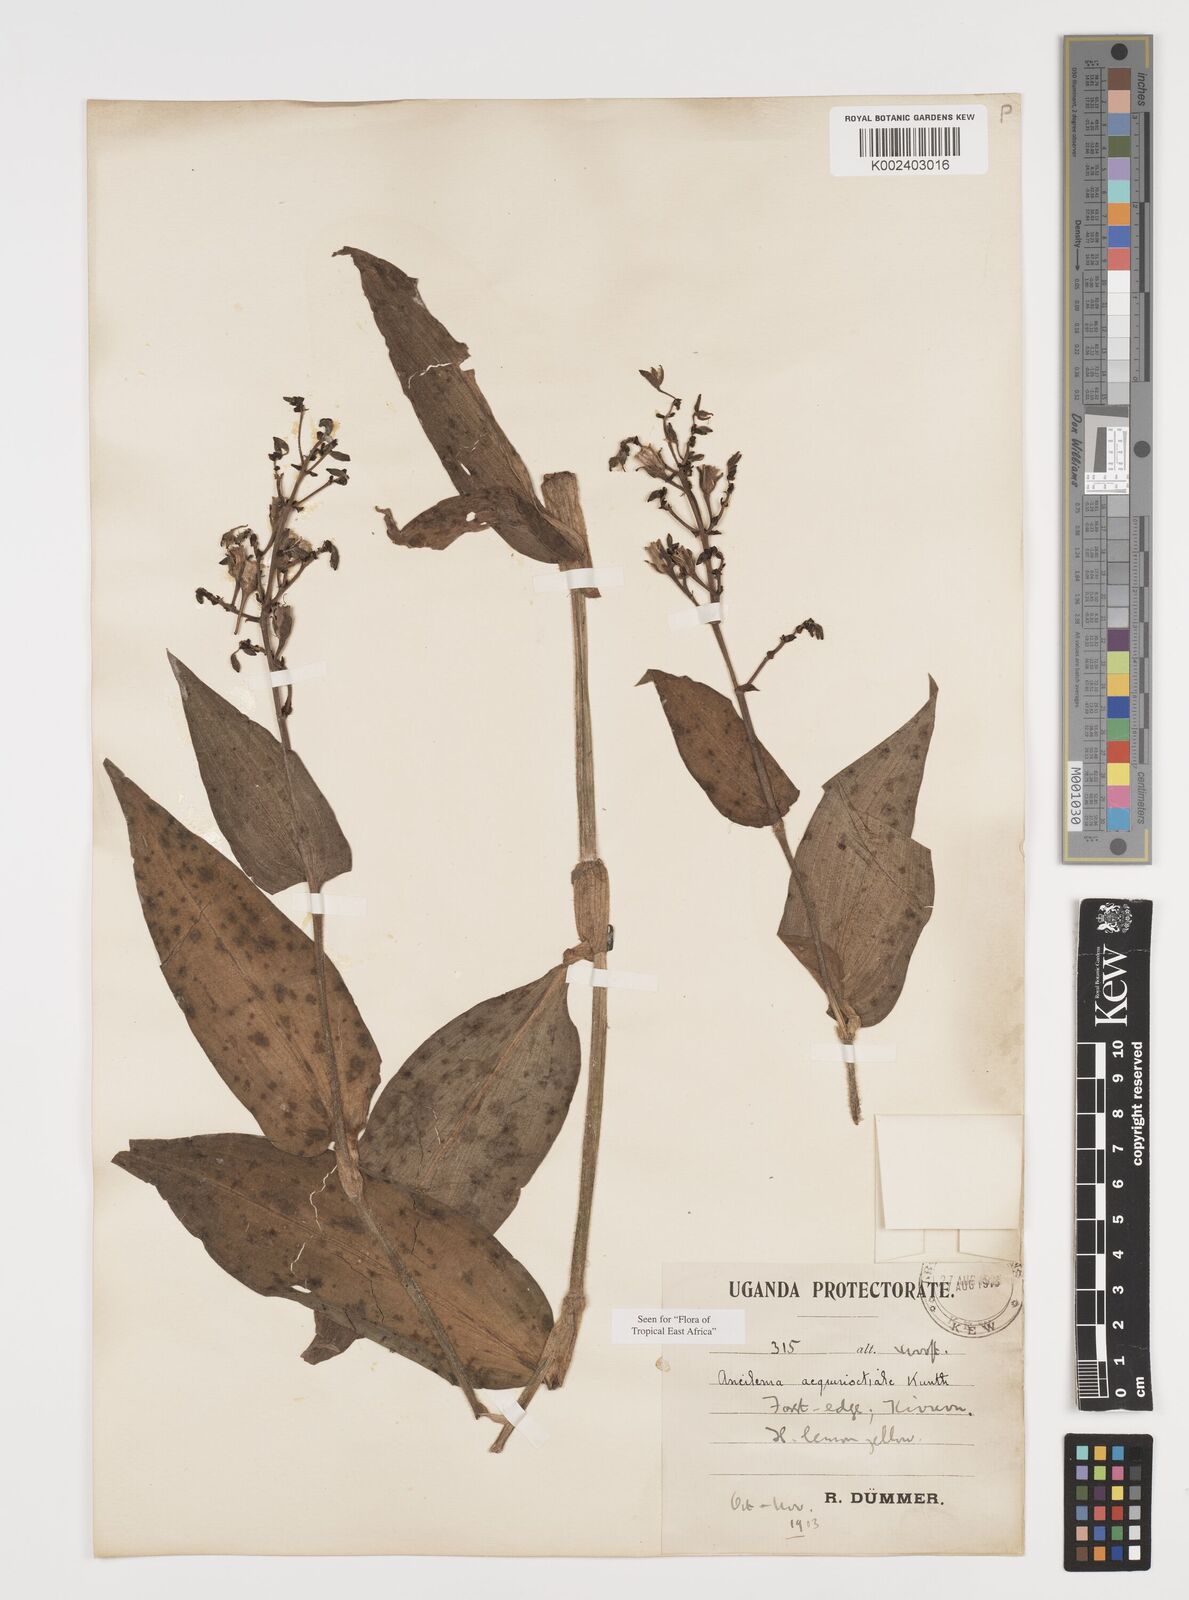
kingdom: Plantae
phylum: Tracheophyta
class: Liliopsida
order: Commelinales
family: Commelinaceae
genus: Aneilema
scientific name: Aneilema aequinoctiale
